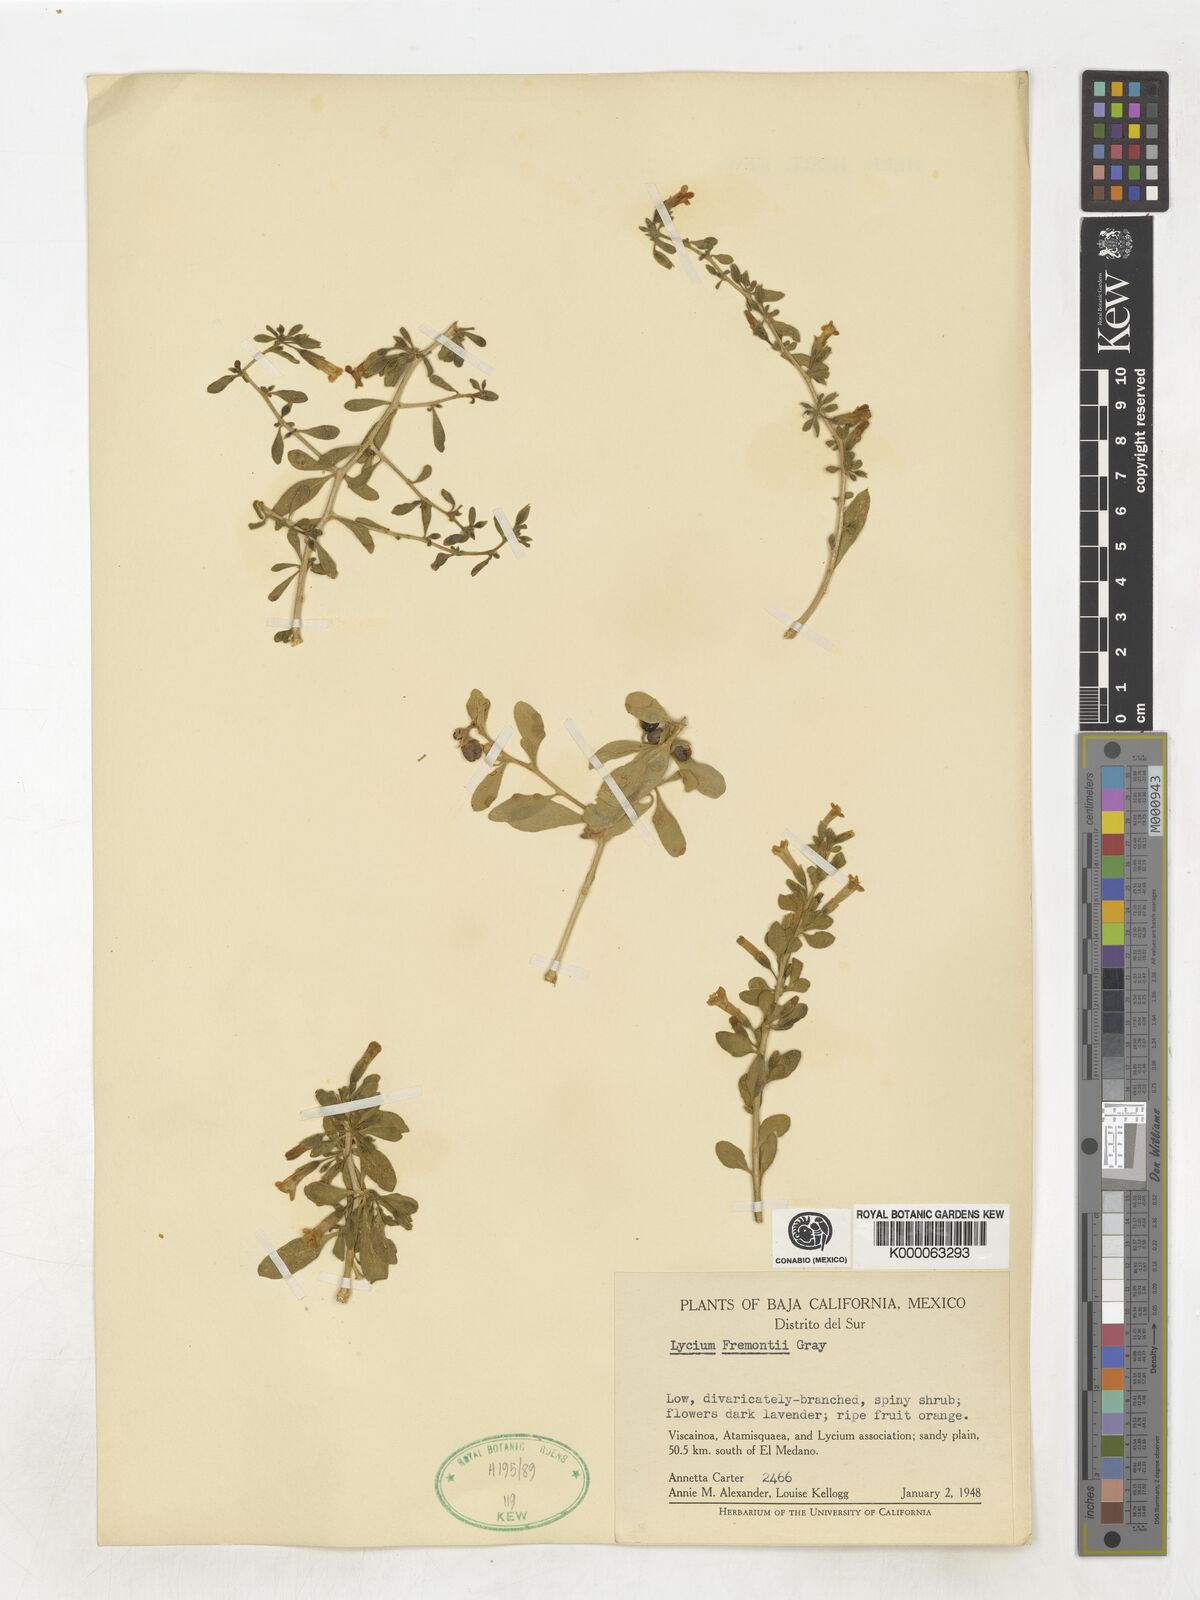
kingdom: Plantae
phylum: Tracheophyta
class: Magnoliopsida
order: Solanales
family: Solanaceae
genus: Lycium
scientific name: Lycium fremontii
